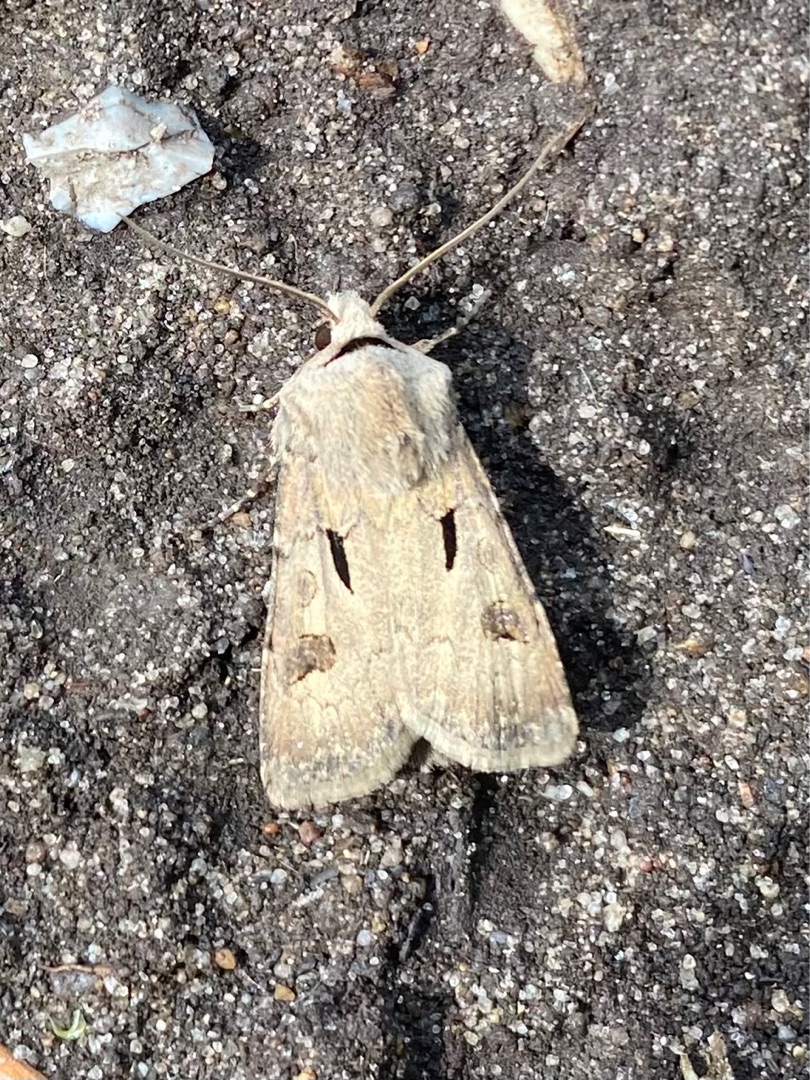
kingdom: Animalia
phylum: Arthropoda
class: Insecta
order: Lepidoptera
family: Noctuidae
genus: Agrotis
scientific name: Agrotis exclamationis
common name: Udråbstegnsugle
